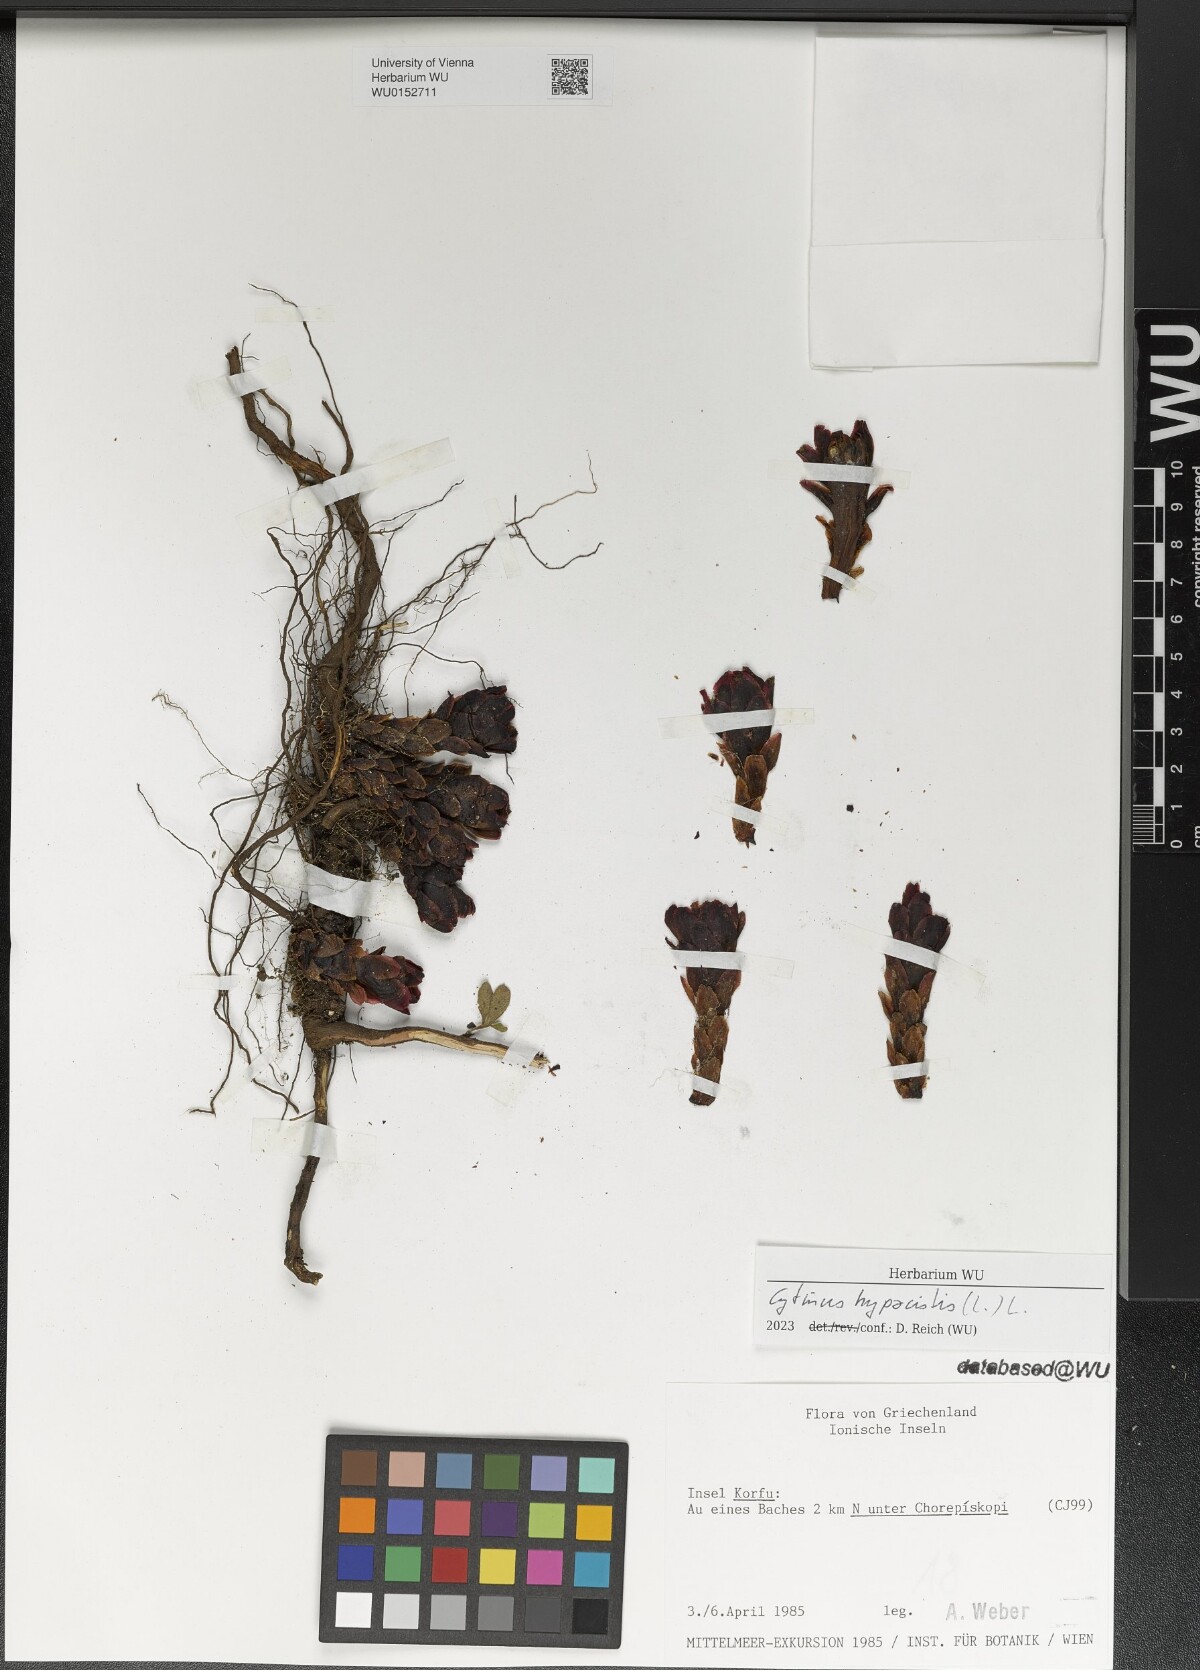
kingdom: Plantae
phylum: Tracheophyta
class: Magnoliopsida
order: Malvales
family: Cytinaceae
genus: Cytinus
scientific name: Cytinus hypocistis
